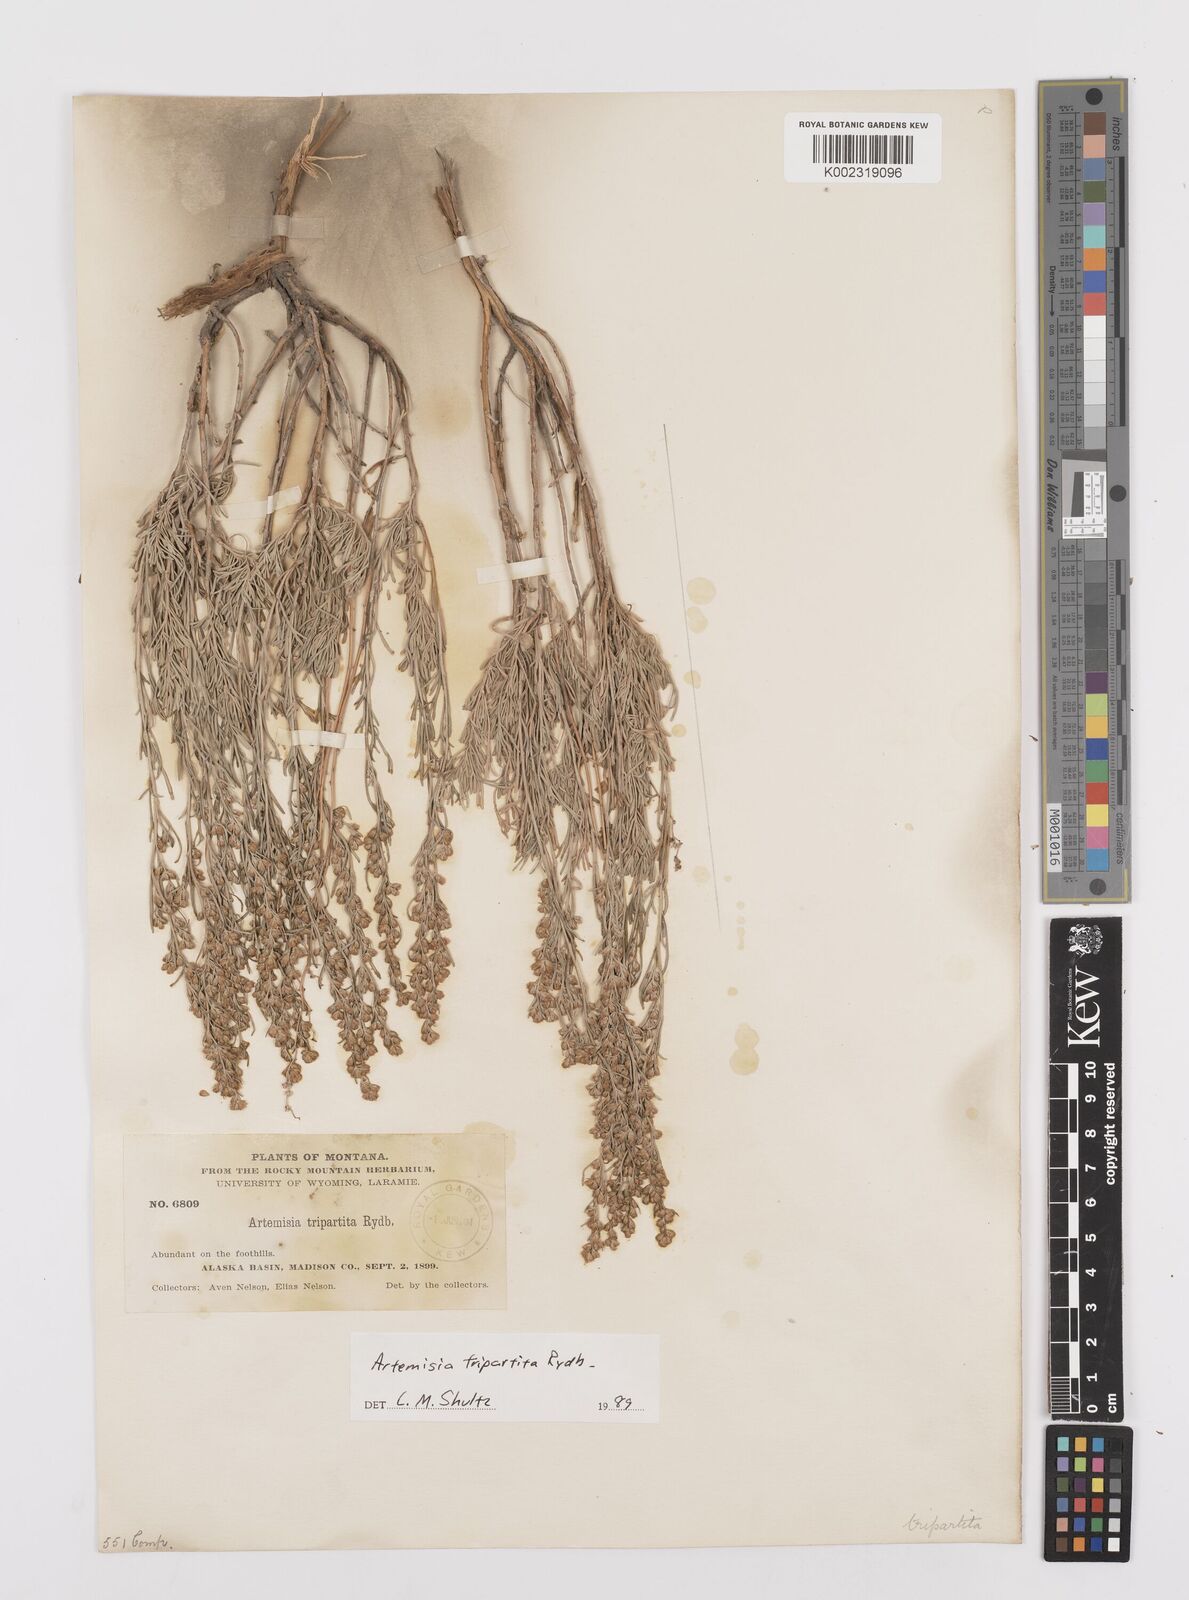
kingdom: Plantae
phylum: Tracheophyta
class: Magnoliopsida
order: Asterales
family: Asteraceae
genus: Artemisia
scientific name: Artemisia tripartita
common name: Three-tip sagebrush
